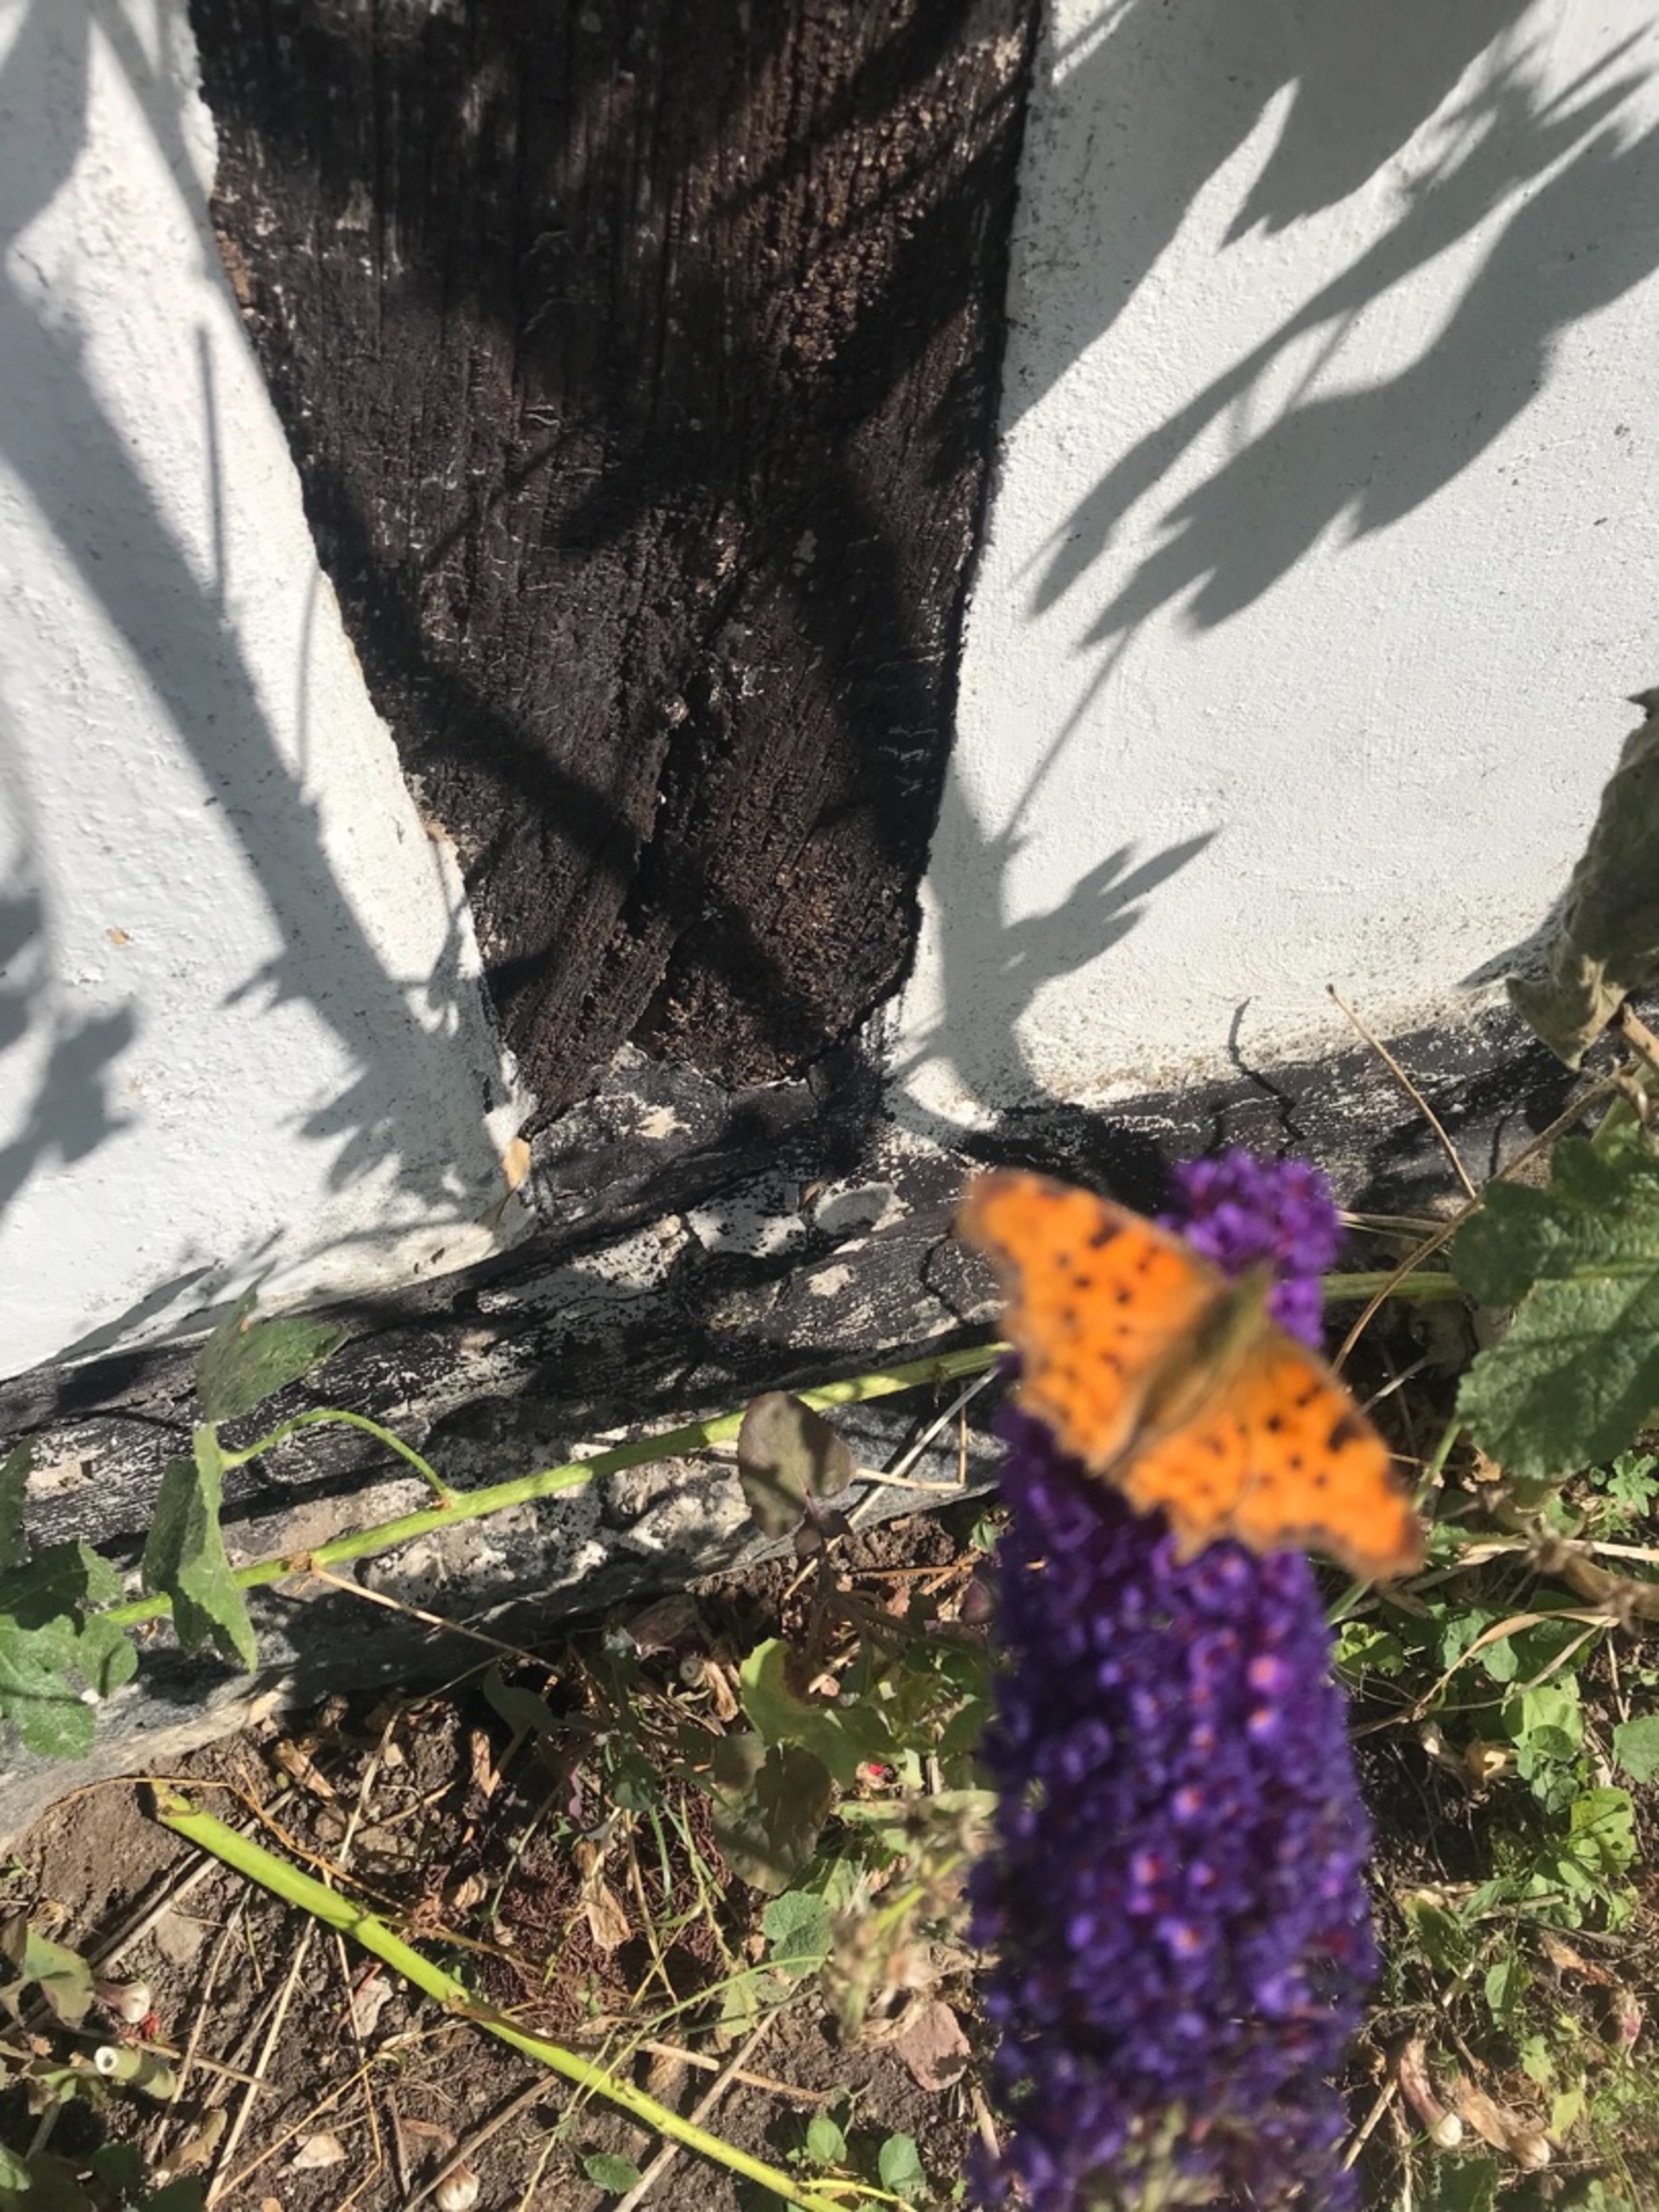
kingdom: Animalia
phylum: Arthropoda
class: Insecta
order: Lepidoptera
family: Nymphalidae
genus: Polygonia
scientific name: Polygonia c-album
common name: Det hvide C
